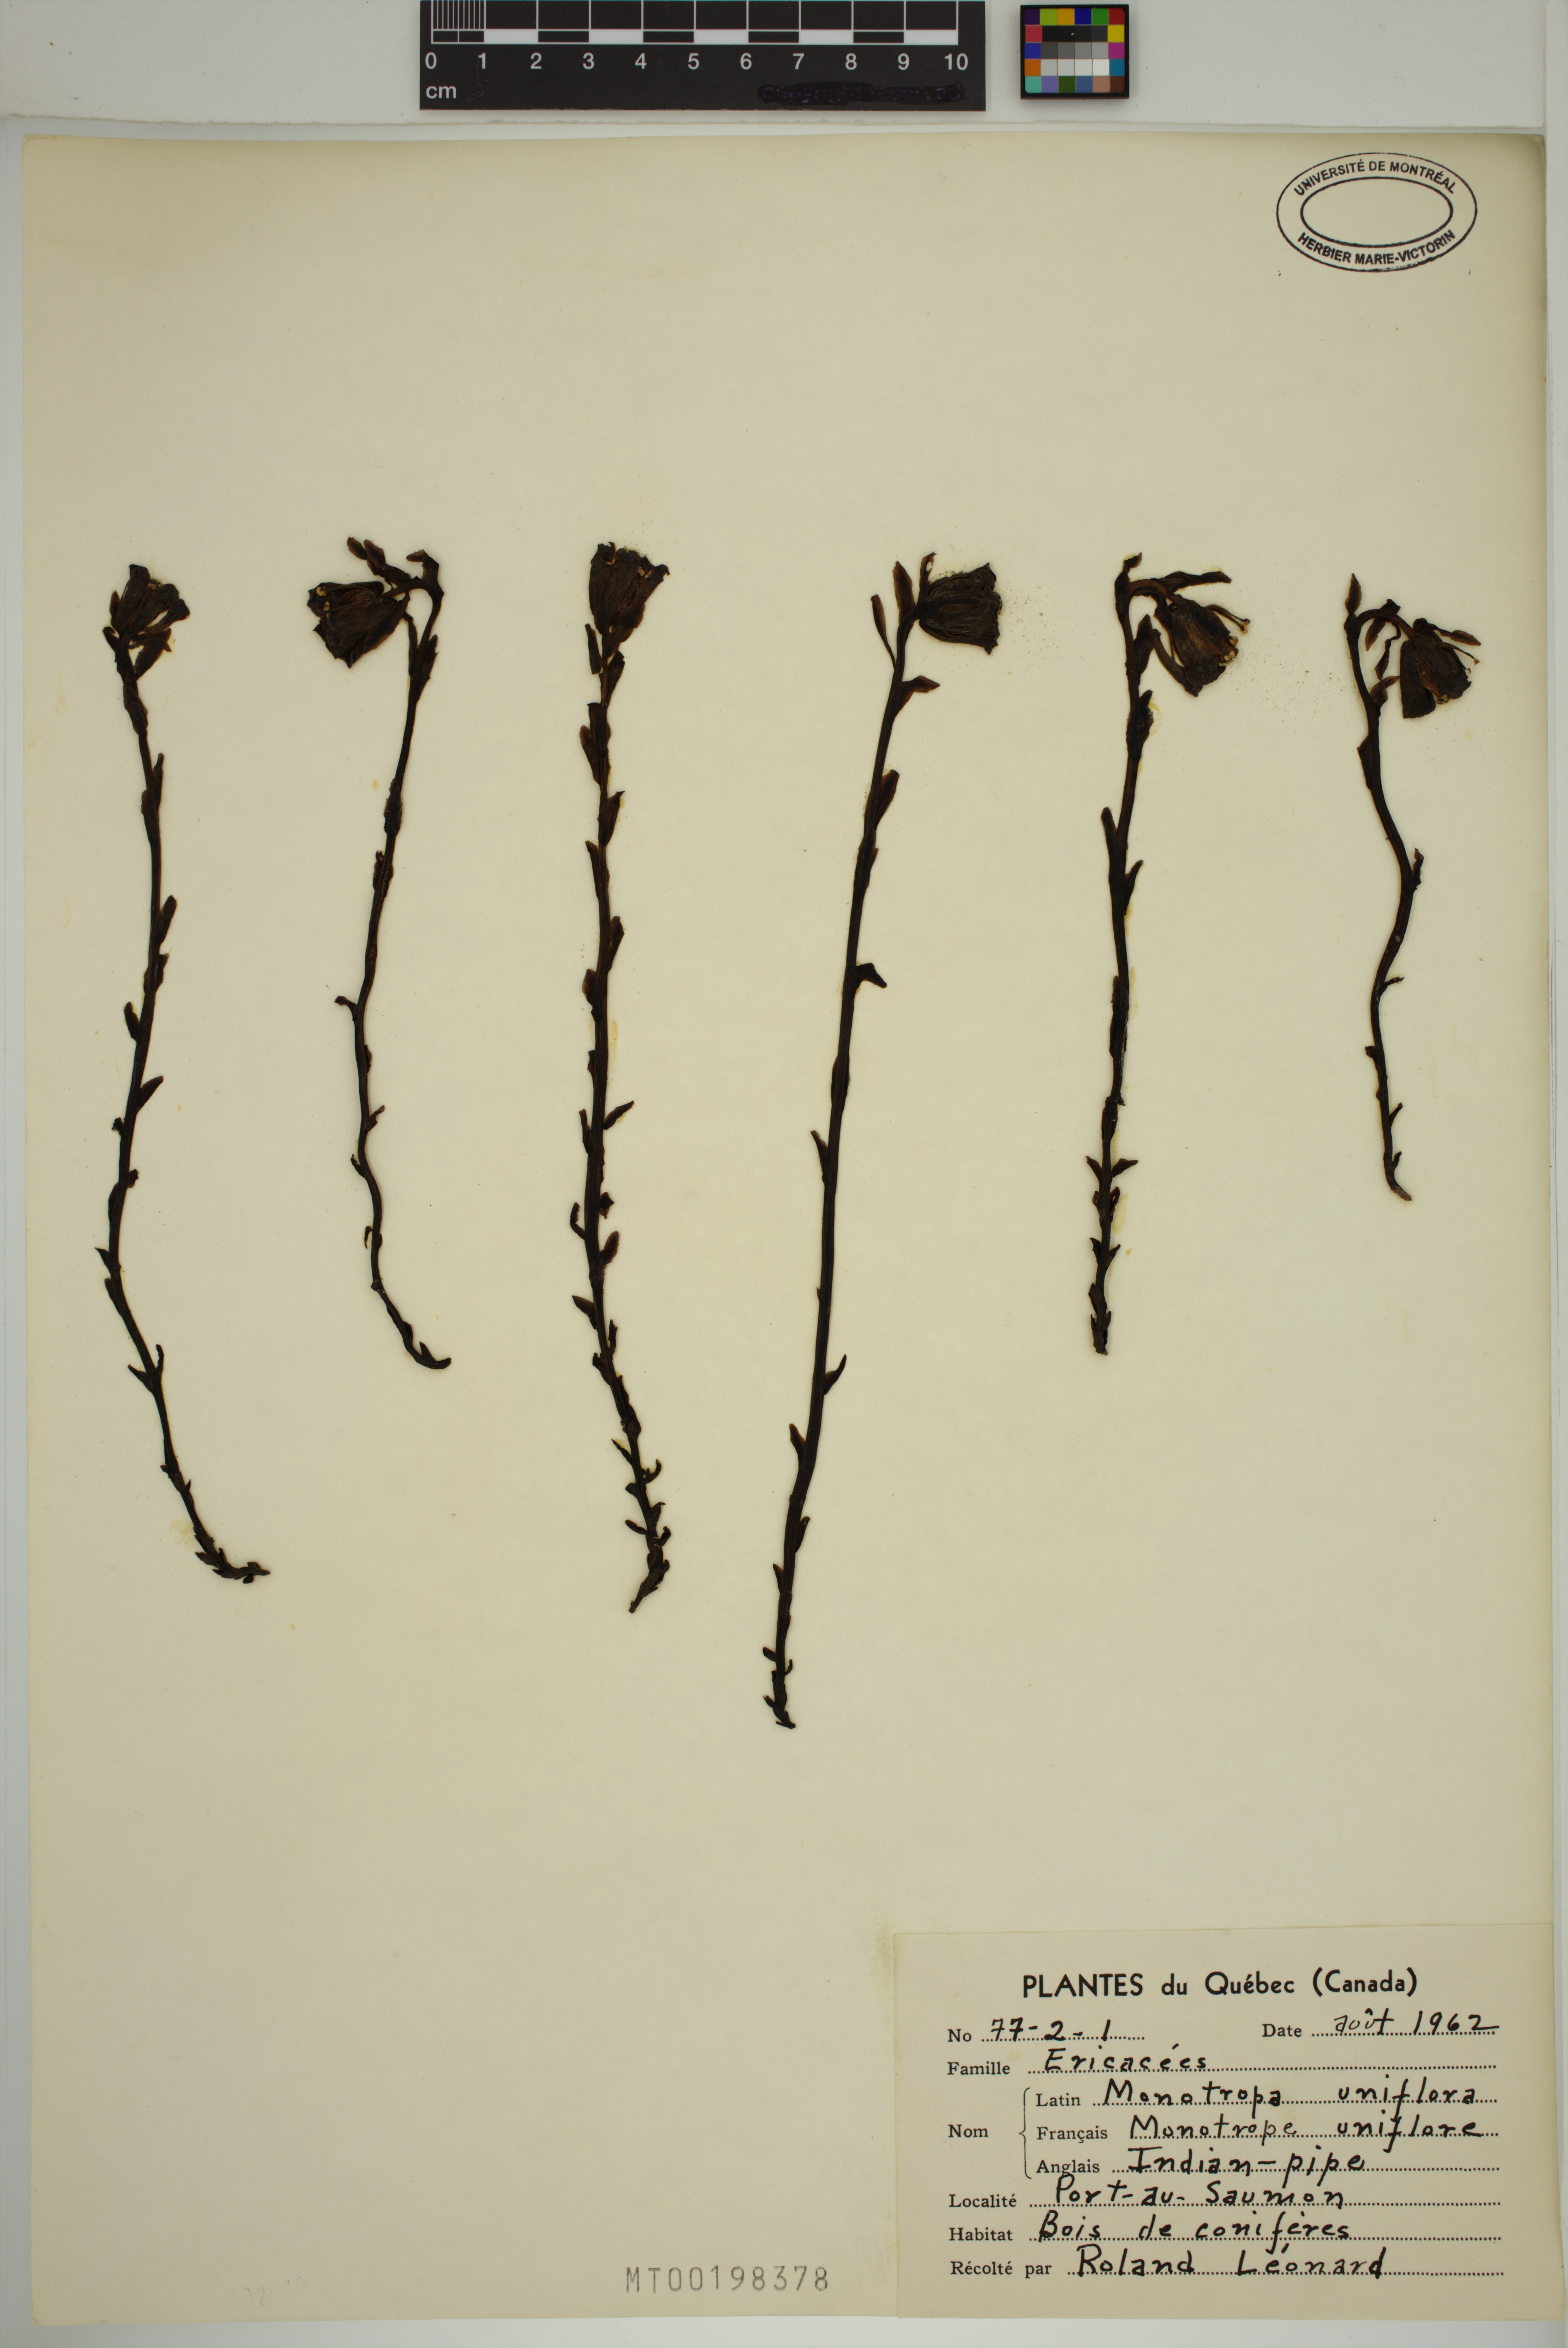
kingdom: Plantae
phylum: Tracheophyta
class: Magnoliopsida
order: Ericales
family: Ericaceae
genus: Monotropa
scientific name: Monotropa uniflora
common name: Convulsion root
